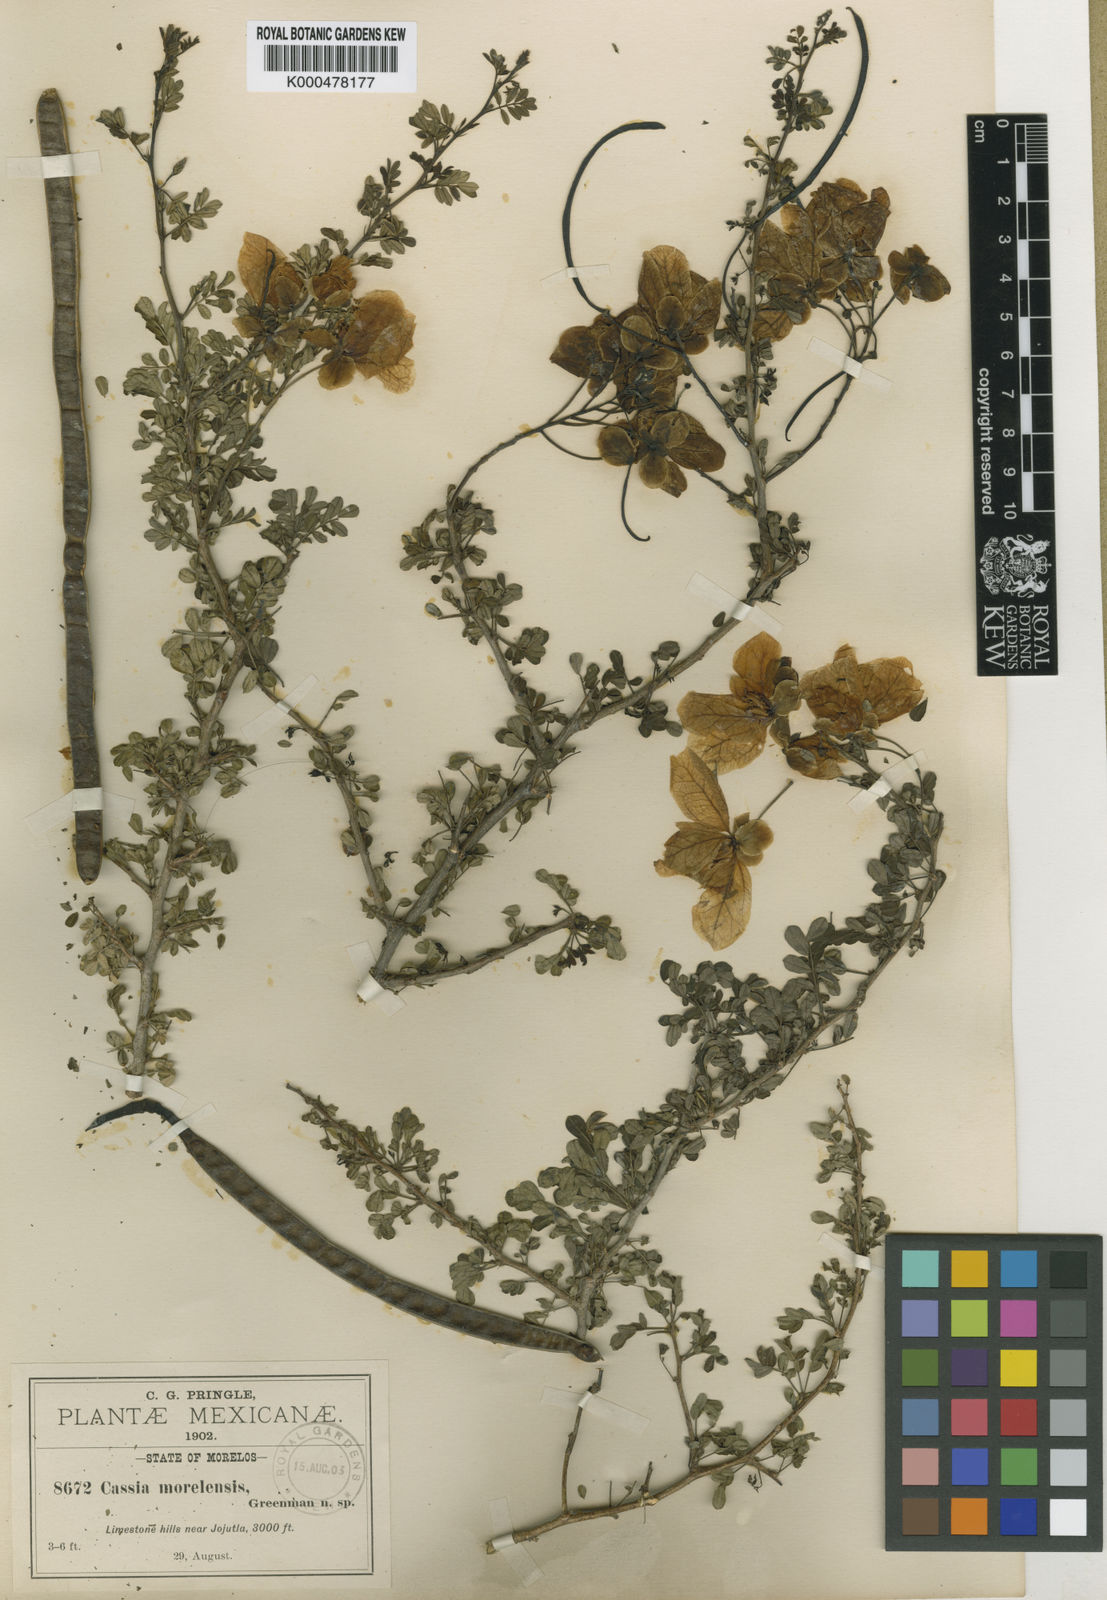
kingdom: Plantae
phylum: Tracheophyta
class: Magnoliopsida
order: Fabales
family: Fabaceae
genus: Senna
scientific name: Senna wislizeni
